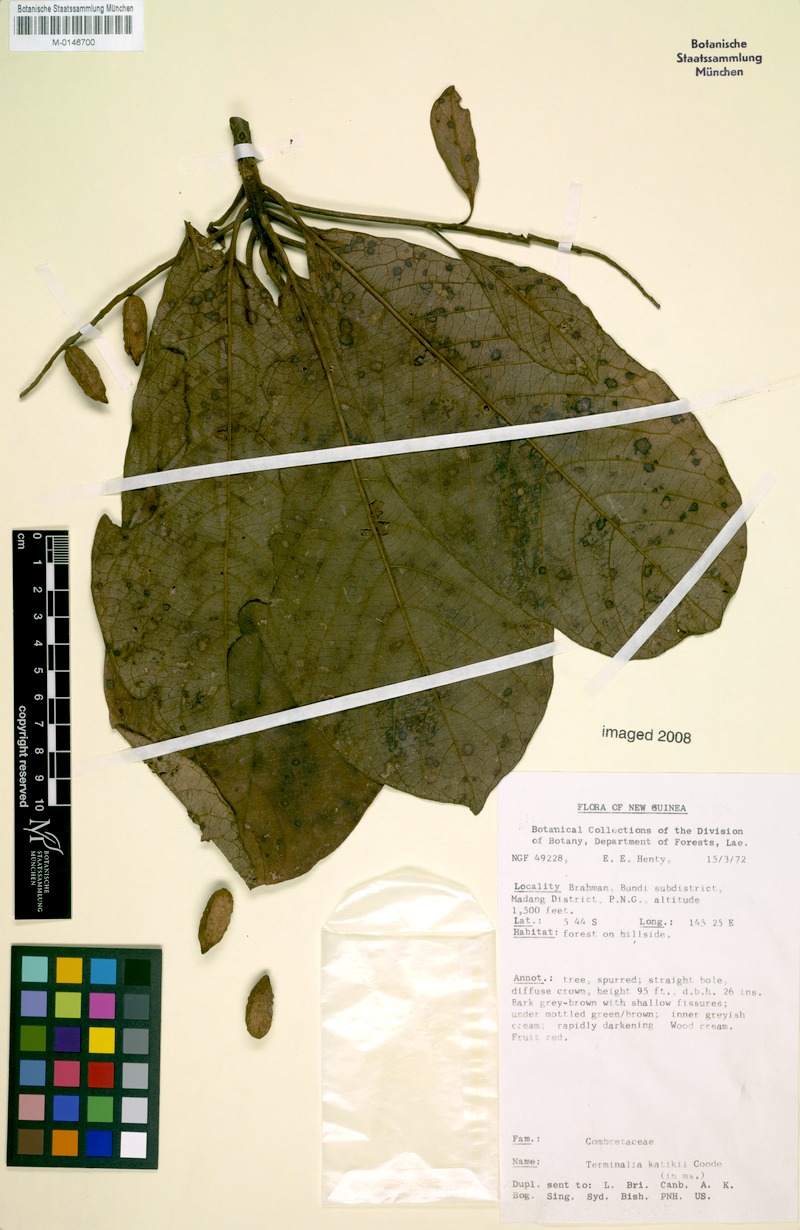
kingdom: Plantae
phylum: Tracheophyta
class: Magnoliopsida
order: Myrtales
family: Combretaceae
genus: Terminalia
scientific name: Terminalia katikii
